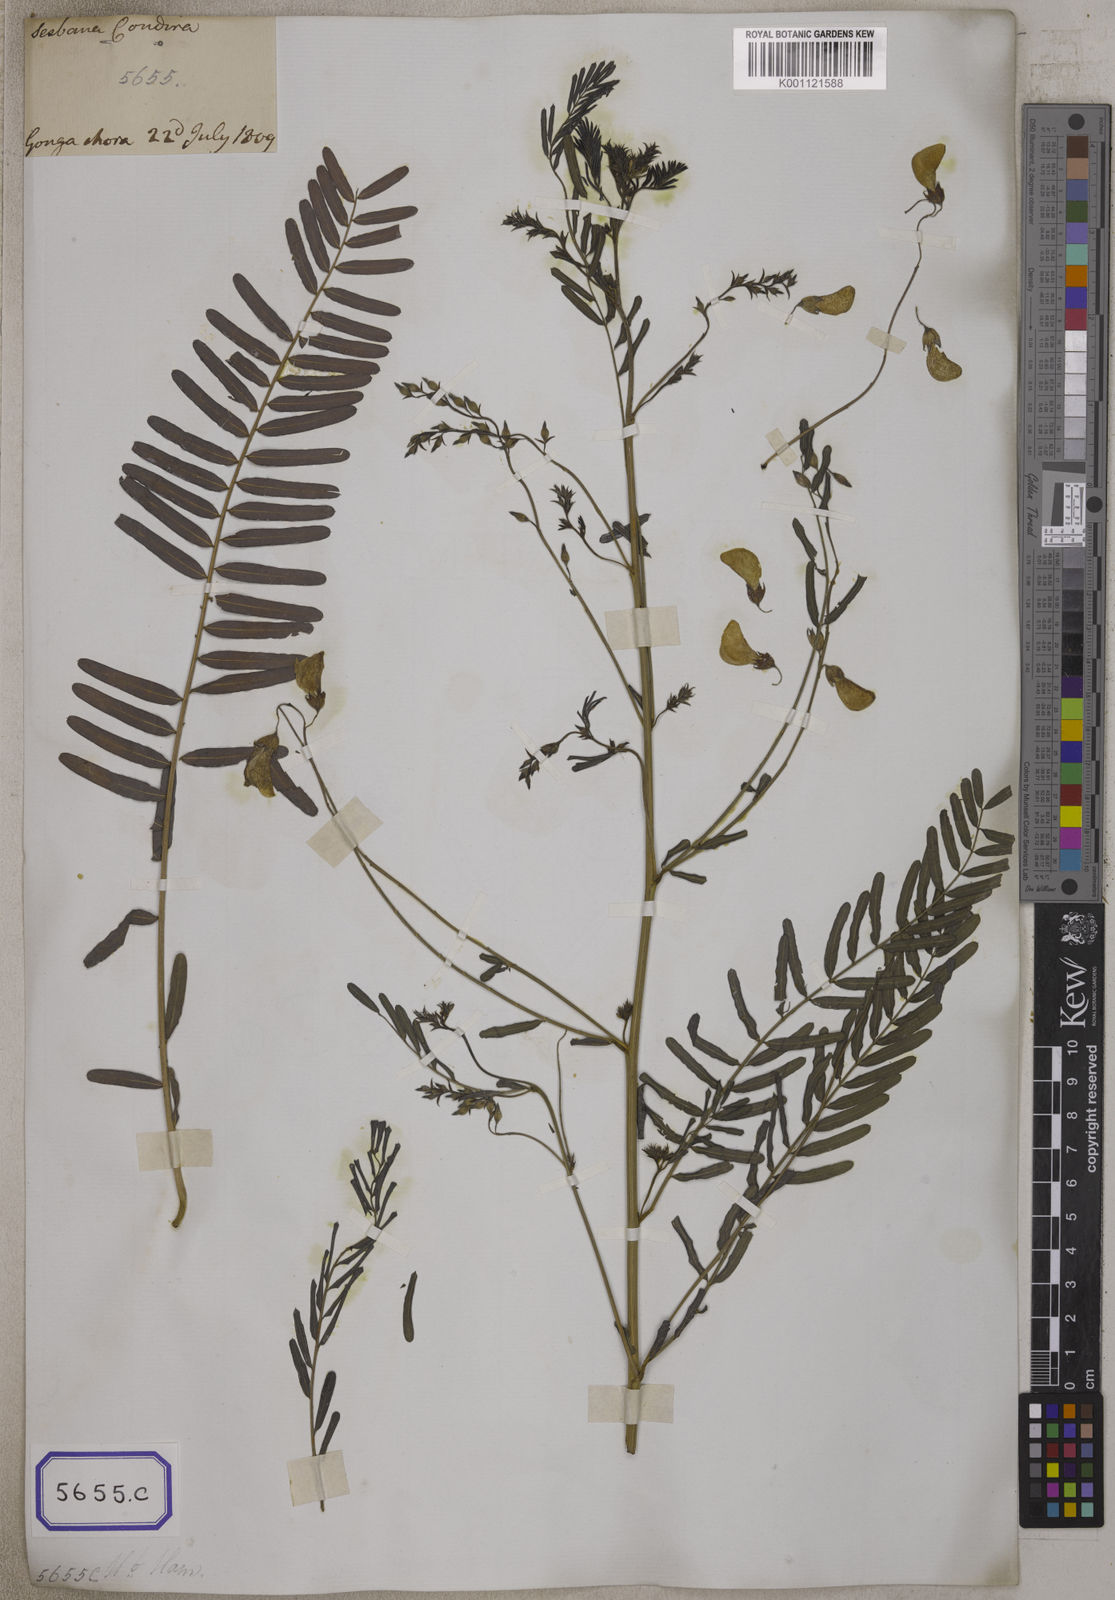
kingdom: Plantae
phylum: Tracheophyta
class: Magnoliopsida
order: Fabales
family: Fabaceae
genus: Sesbania
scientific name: Sesbania bispinosa
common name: Sesbania pea
